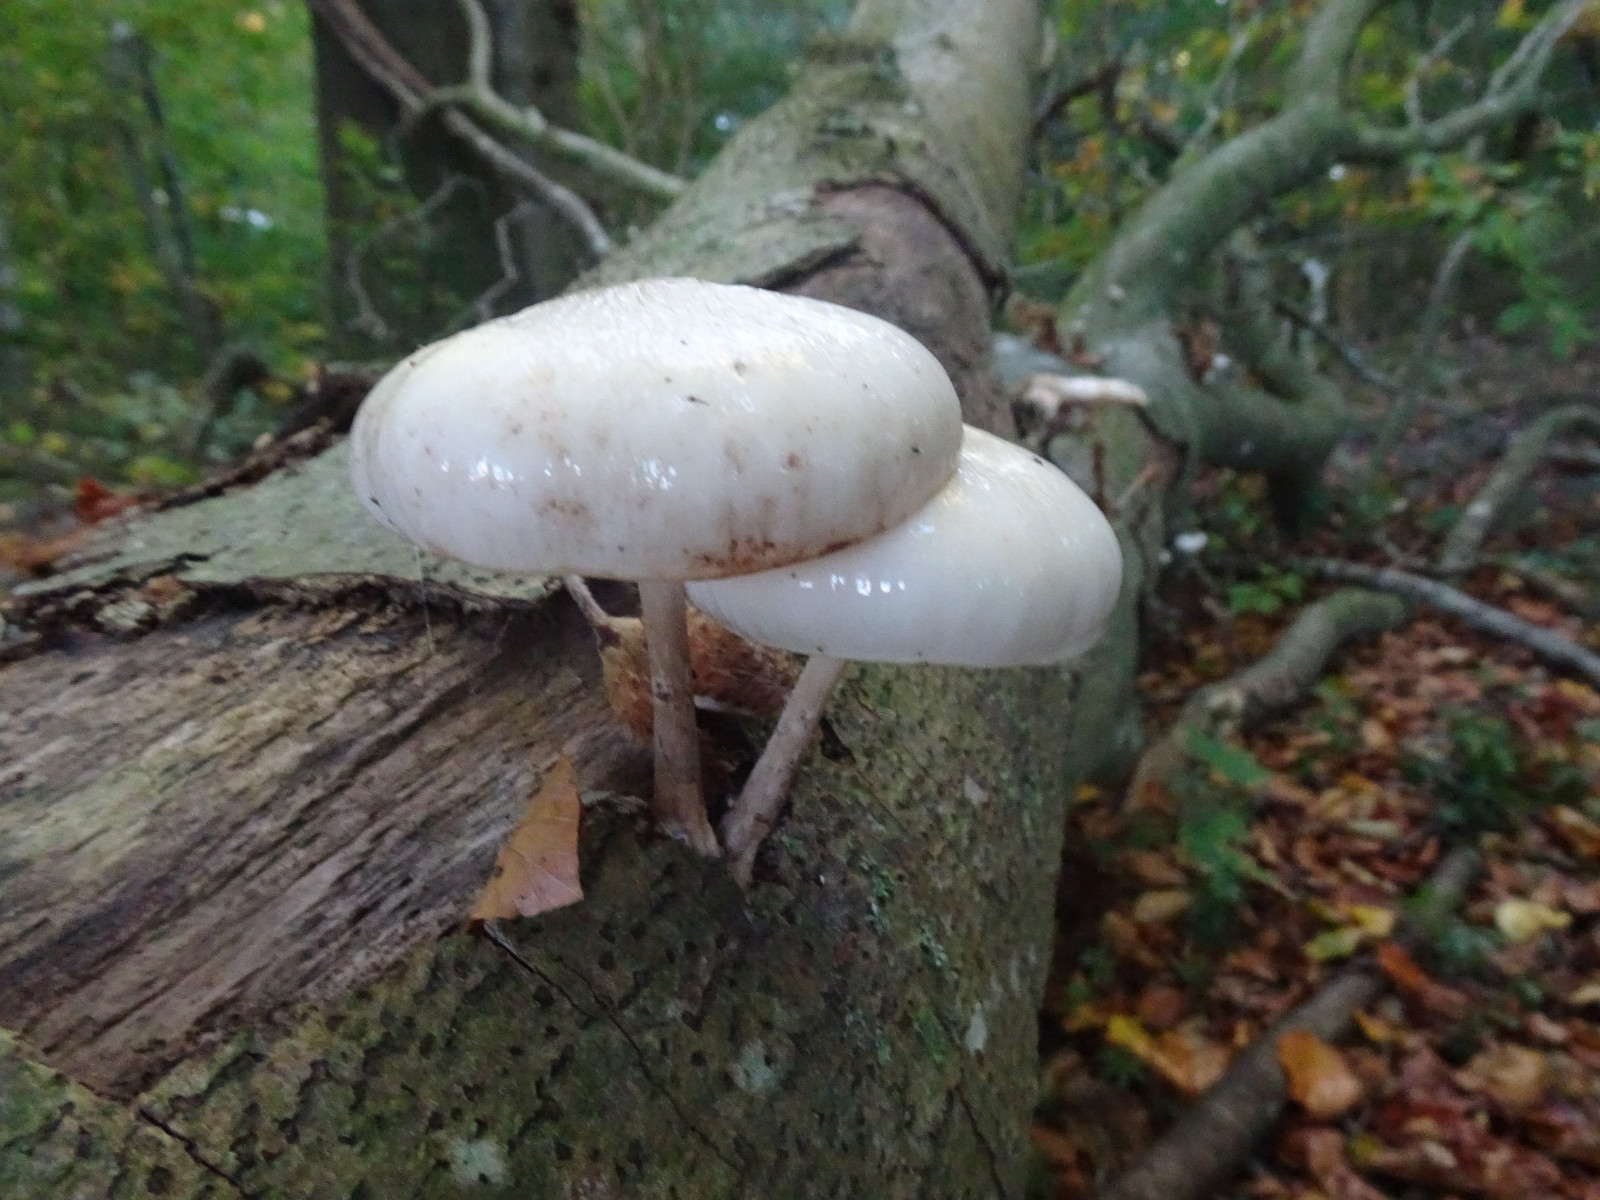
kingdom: Fungi
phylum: Basidiomycota
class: Agaricomycetes
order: Agaricales
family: Physalacriaceae
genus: Mucidula
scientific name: Mucidula mucida
